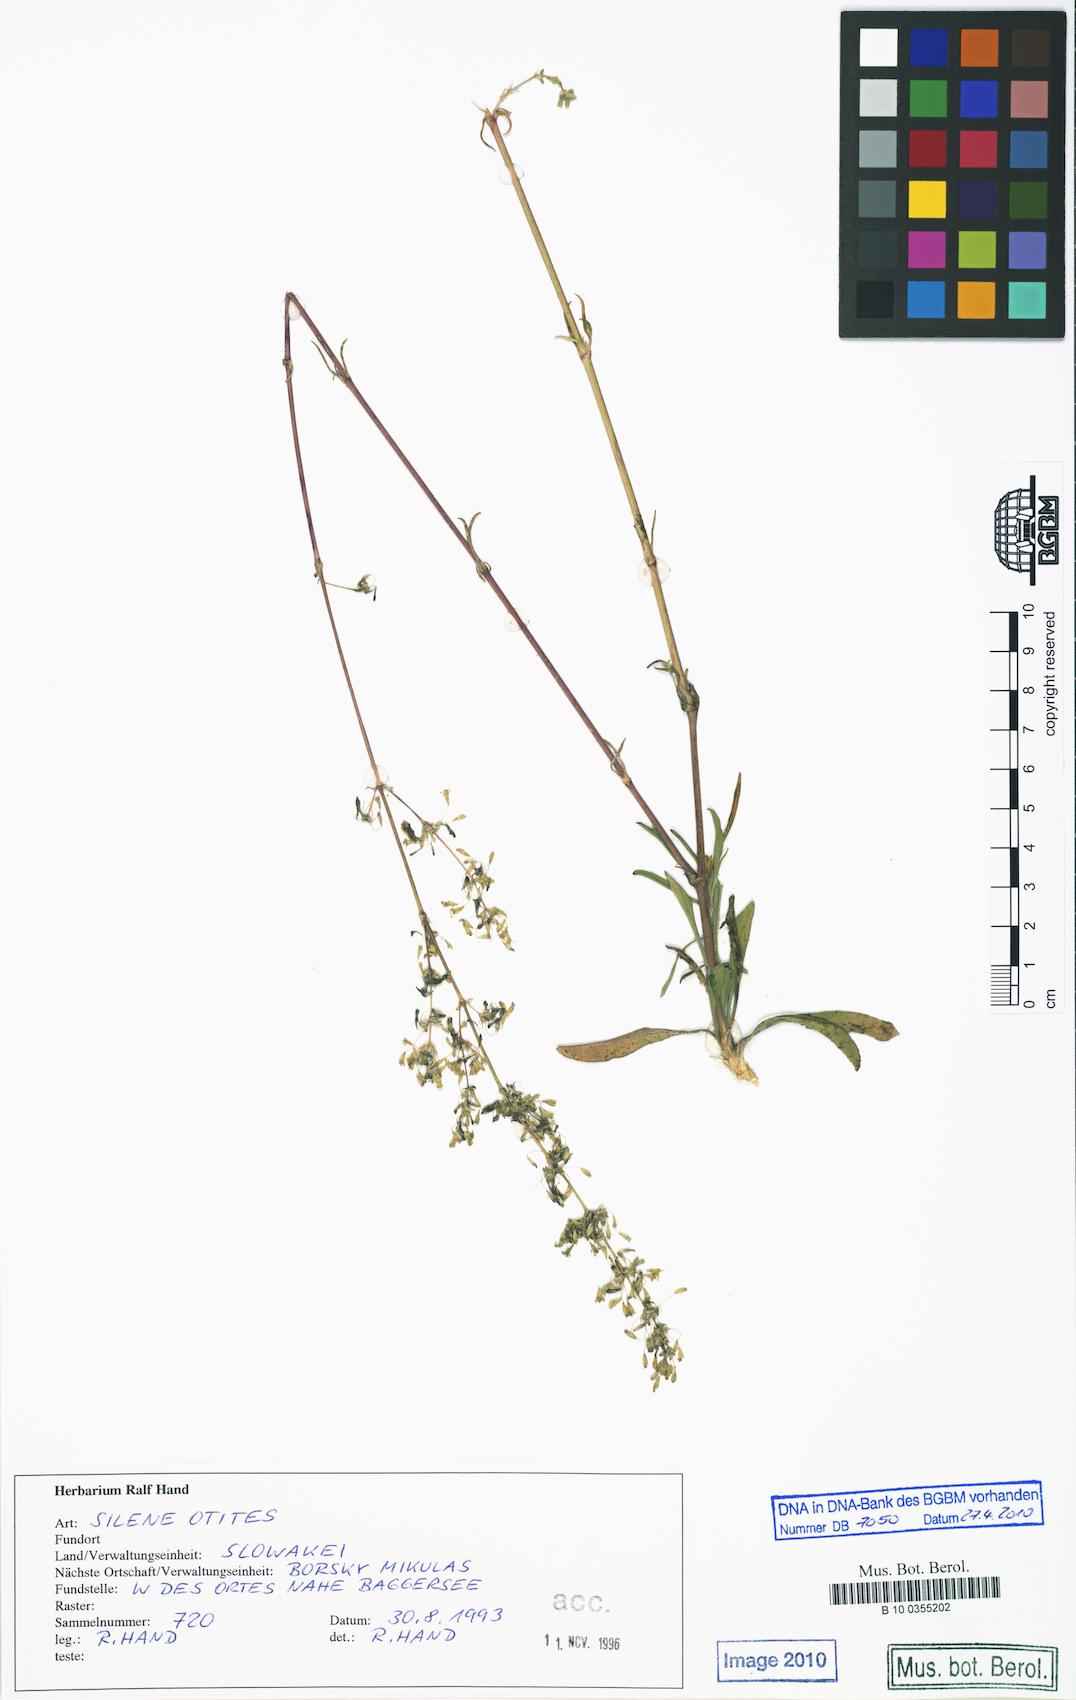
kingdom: Plantae
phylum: Tracheophyta
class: Magnoliopsida
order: Caryophyllales
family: Caryophyllaceae
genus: Silene
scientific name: Silene otites
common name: Spanish catchfly
